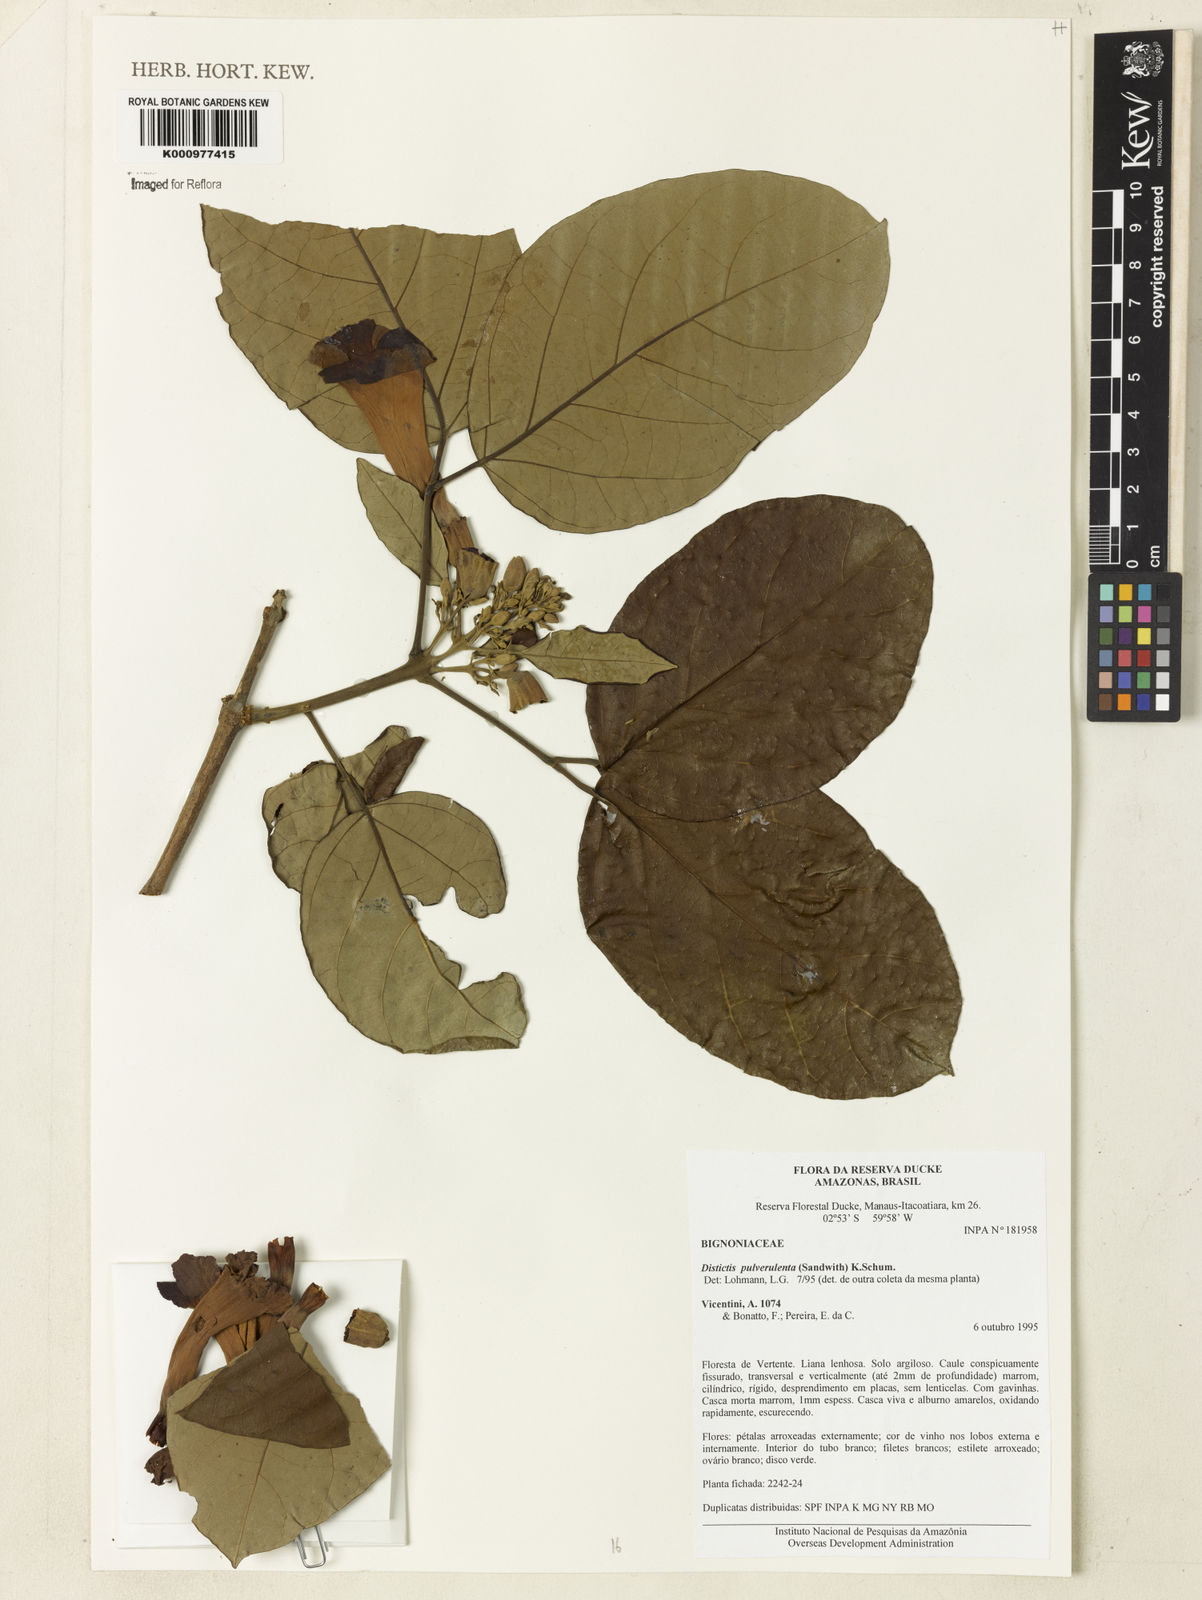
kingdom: Plantae
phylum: Tracheophyta
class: Magnoliopsida
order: Lamiales
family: Bignoniaceae
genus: Amphilophium
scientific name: Amphilophium pulverulentum
